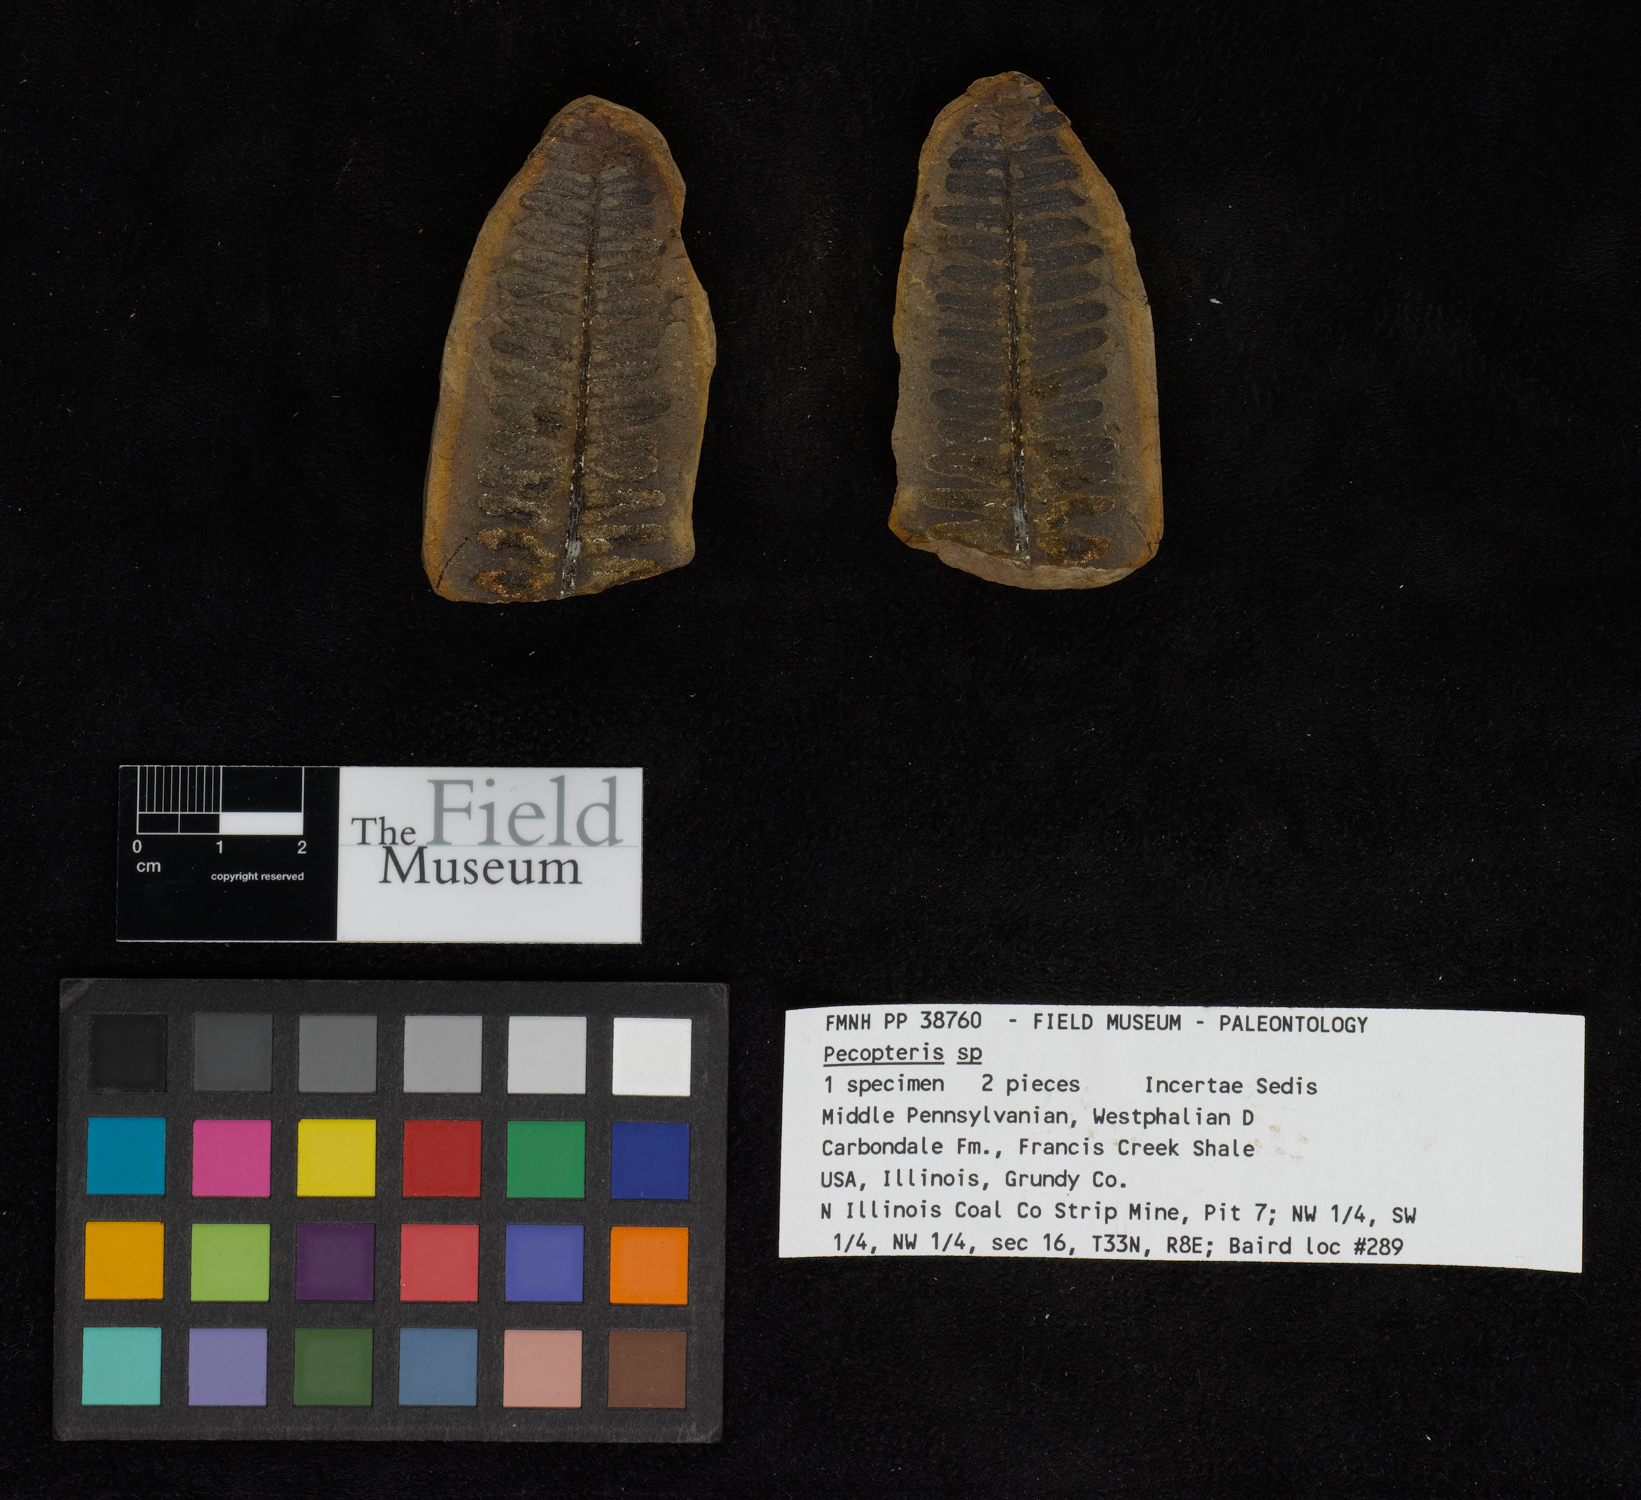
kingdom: Plantae
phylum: Tracheophyta
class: Polypodiopsida
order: Marattiales
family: Asterothecaceae
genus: Pecopteris
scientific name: Pecopteris
